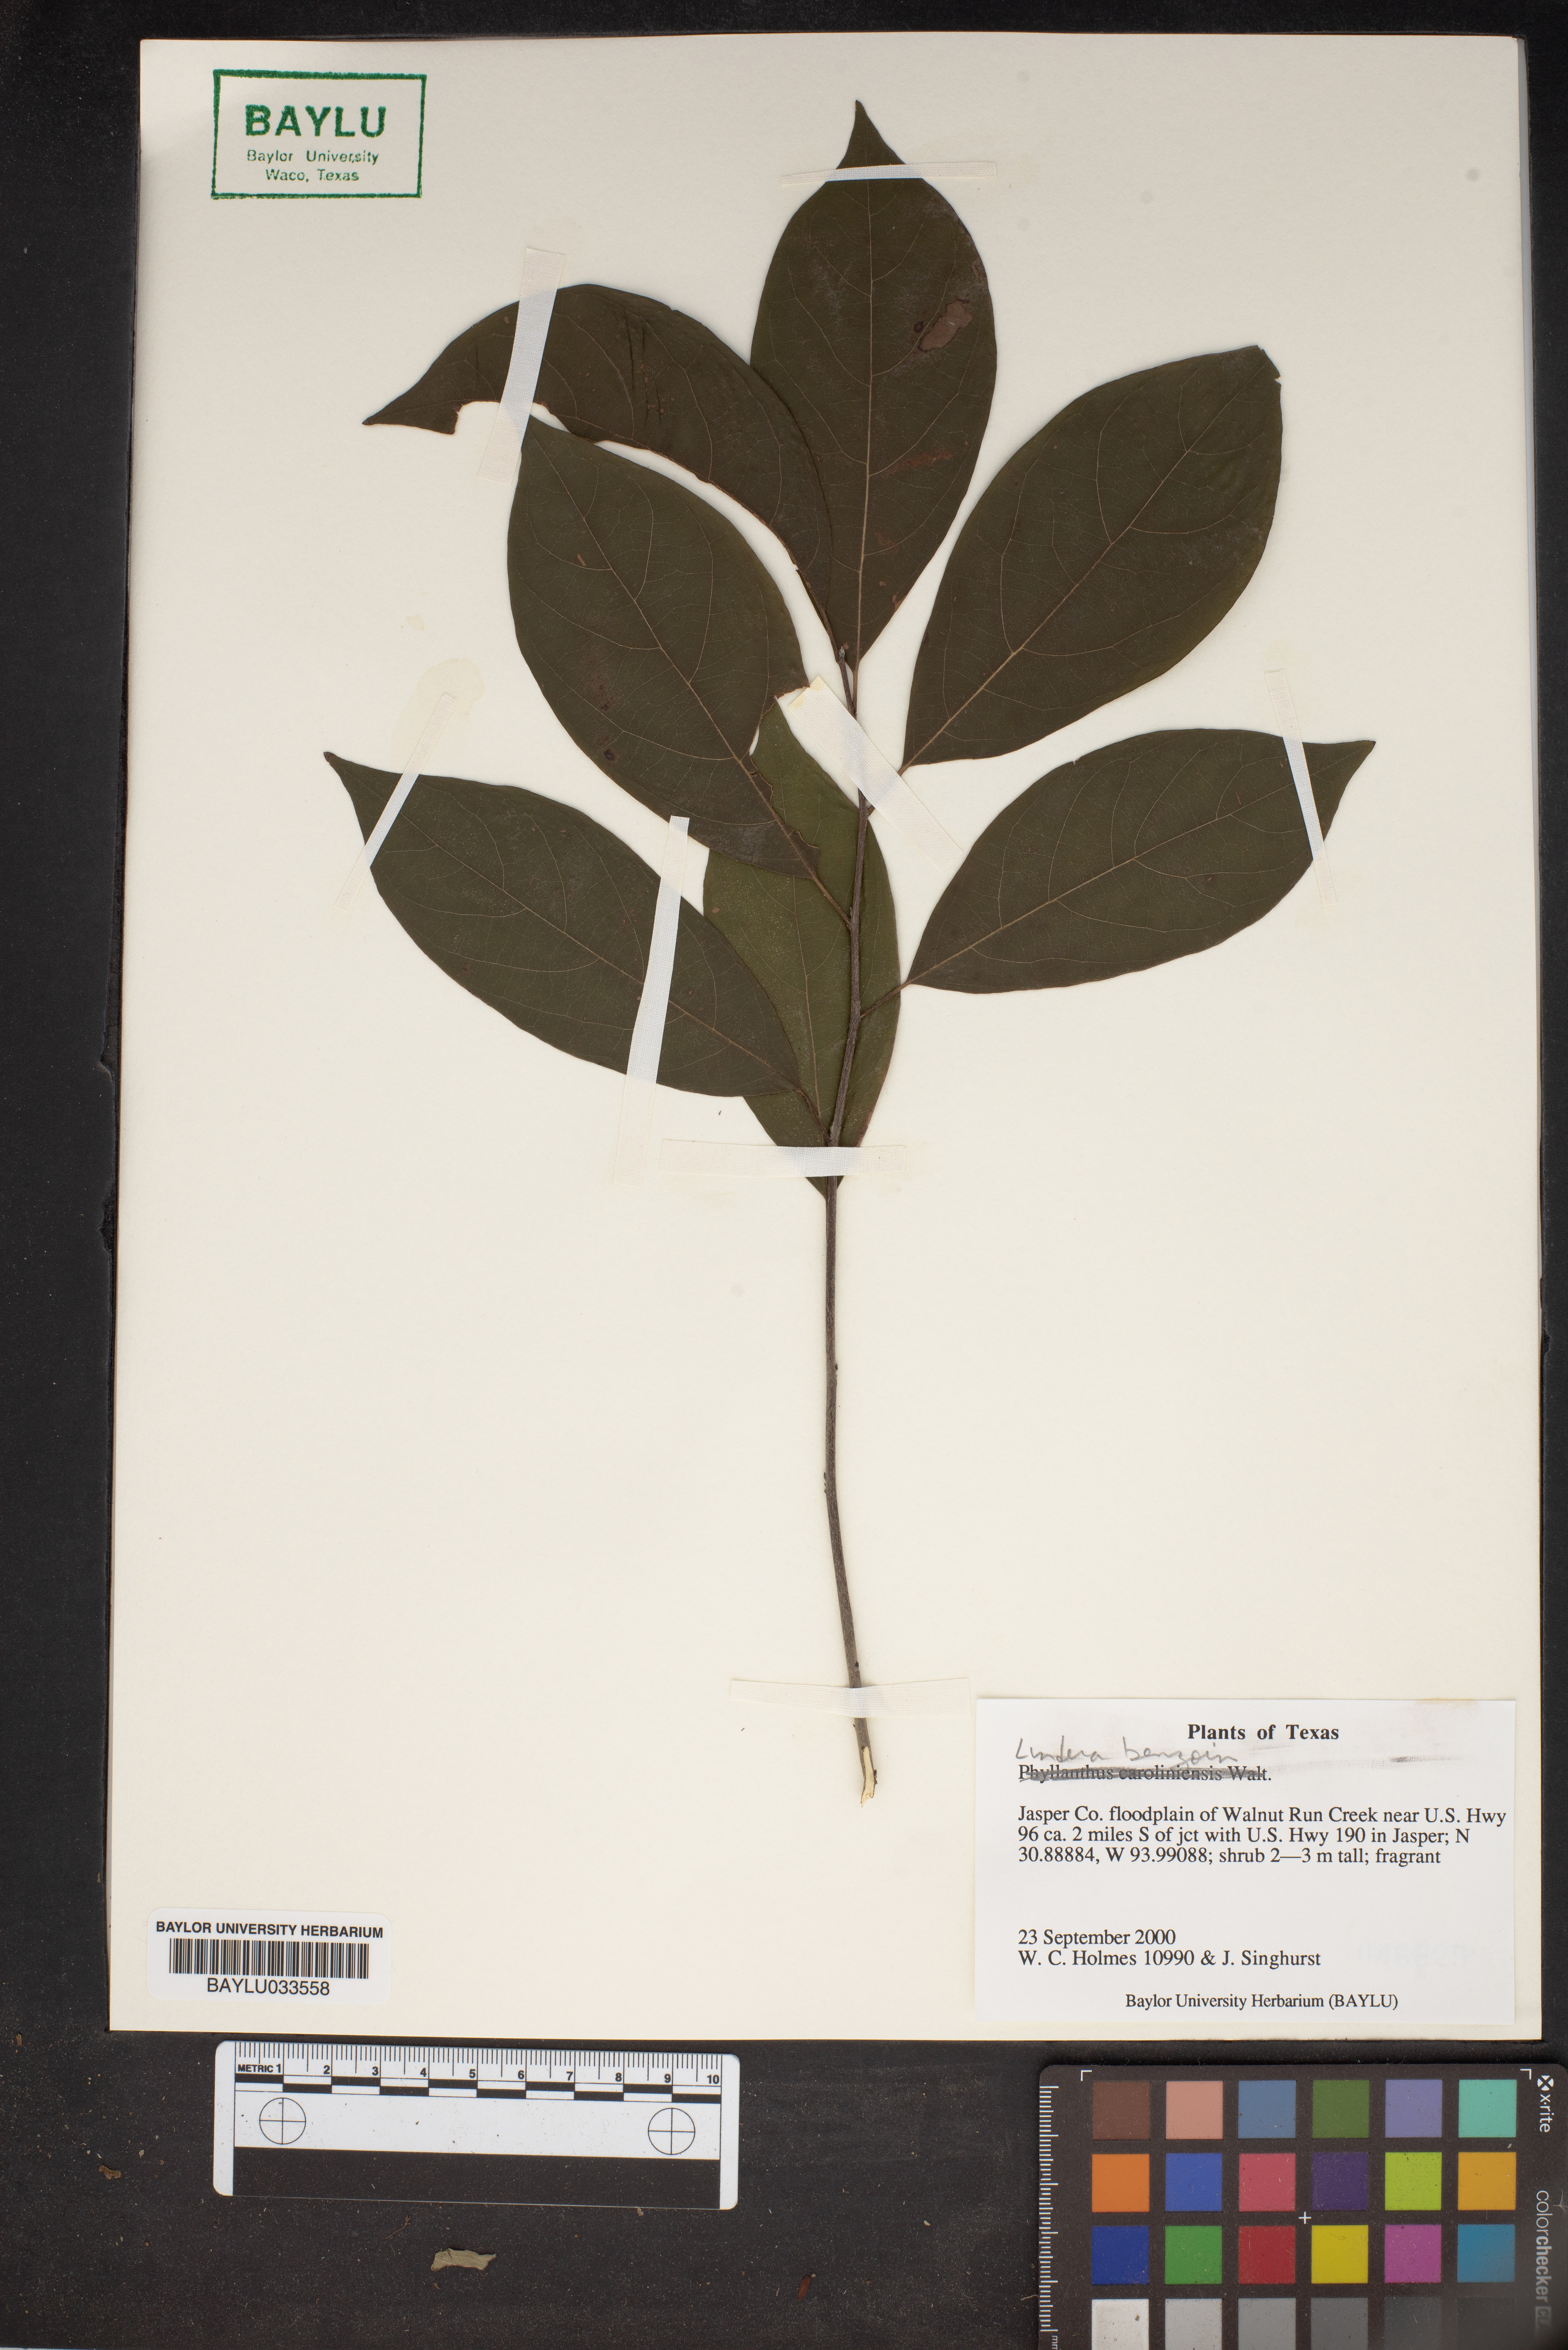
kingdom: Plantae
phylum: Tracheophyta
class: Magnoliopsida
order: Laurales
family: Lauraceae
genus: Lindera
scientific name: Lindera benzoin
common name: Spicebush
